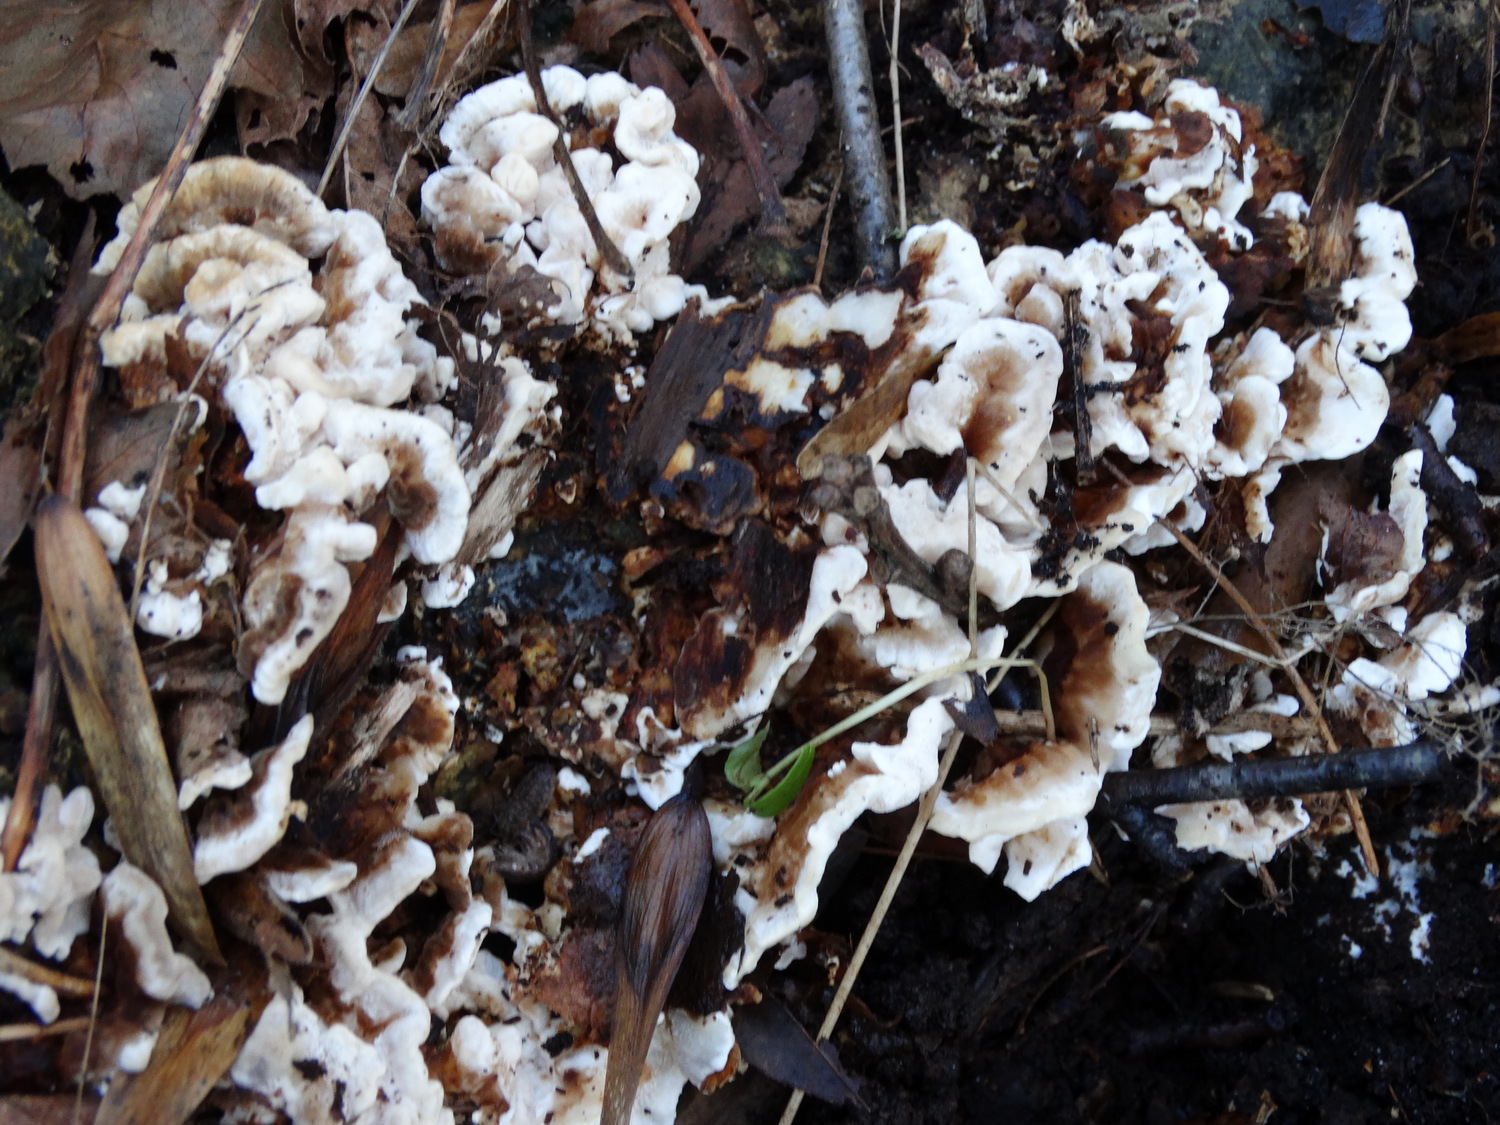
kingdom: Fungi
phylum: Basidiomycota
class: Agaricomycetes
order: Polyporales
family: Polyporaceae
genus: Trametes
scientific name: Trametes versicolor
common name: broget læderporesvamp
